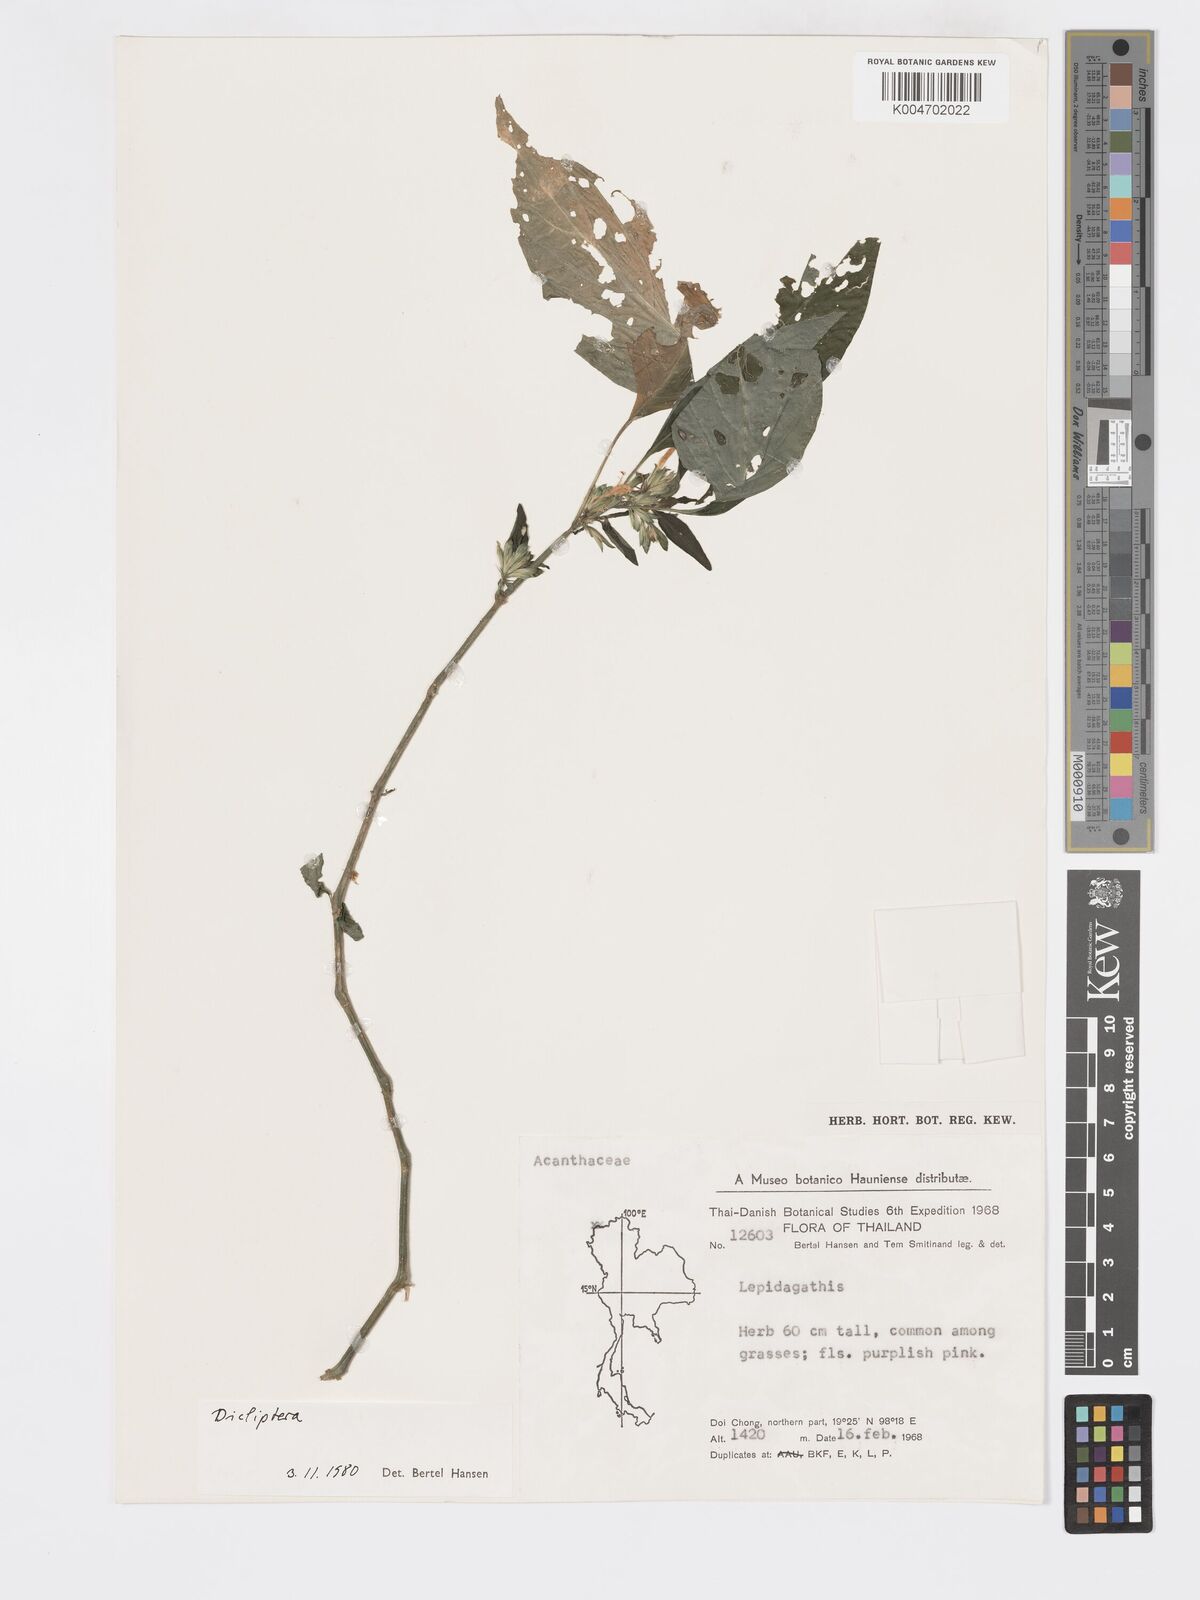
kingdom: Plantae
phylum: Tracheophyta
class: Magnoliopsida
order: Lamiales
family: Acanthaceae
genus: Dicliptera
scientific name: Dicliptera
